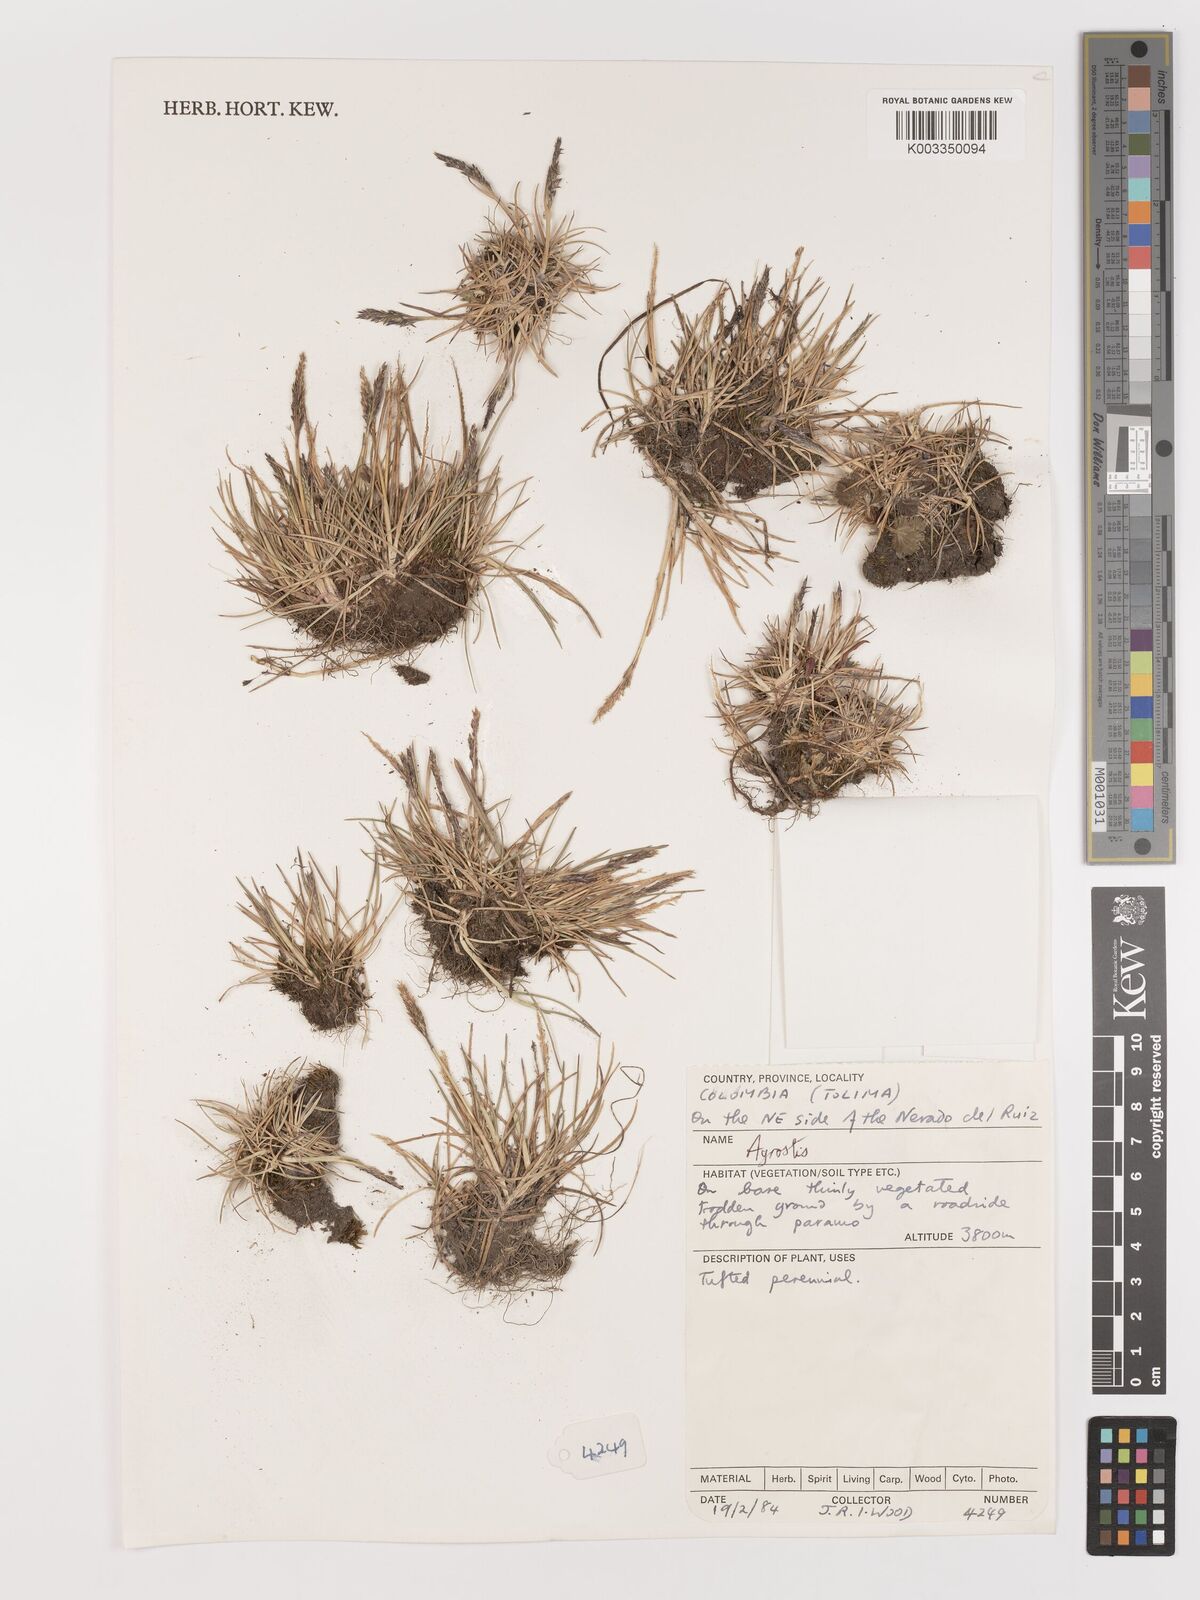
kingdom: Plantae
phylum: Tracheophyta
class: Liliopsida
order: Poales
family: Poaceae
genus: Agrostis
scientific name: Agrostis
